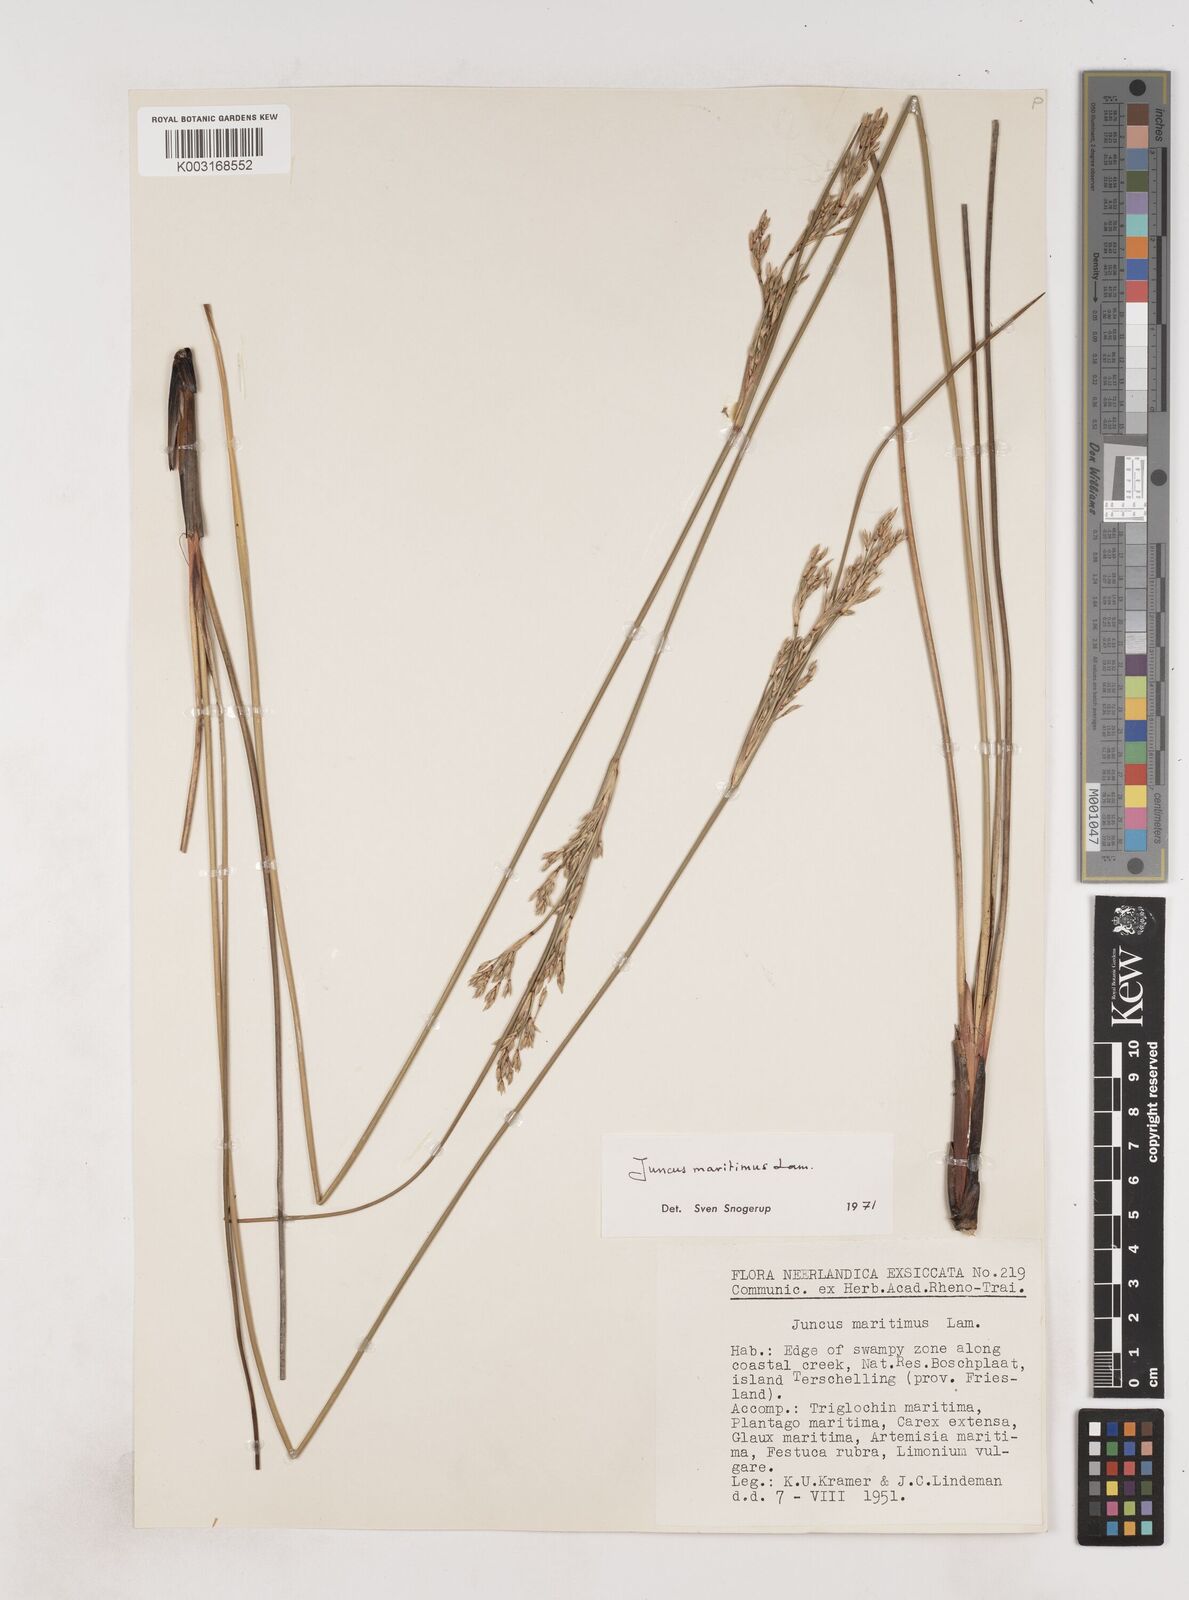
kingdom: Plantae
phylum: Tracheophyta
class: Liliopsida
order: Poales
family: Juncaceae
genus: Juncus
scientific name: Juncus maritimus
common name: Sea rush
